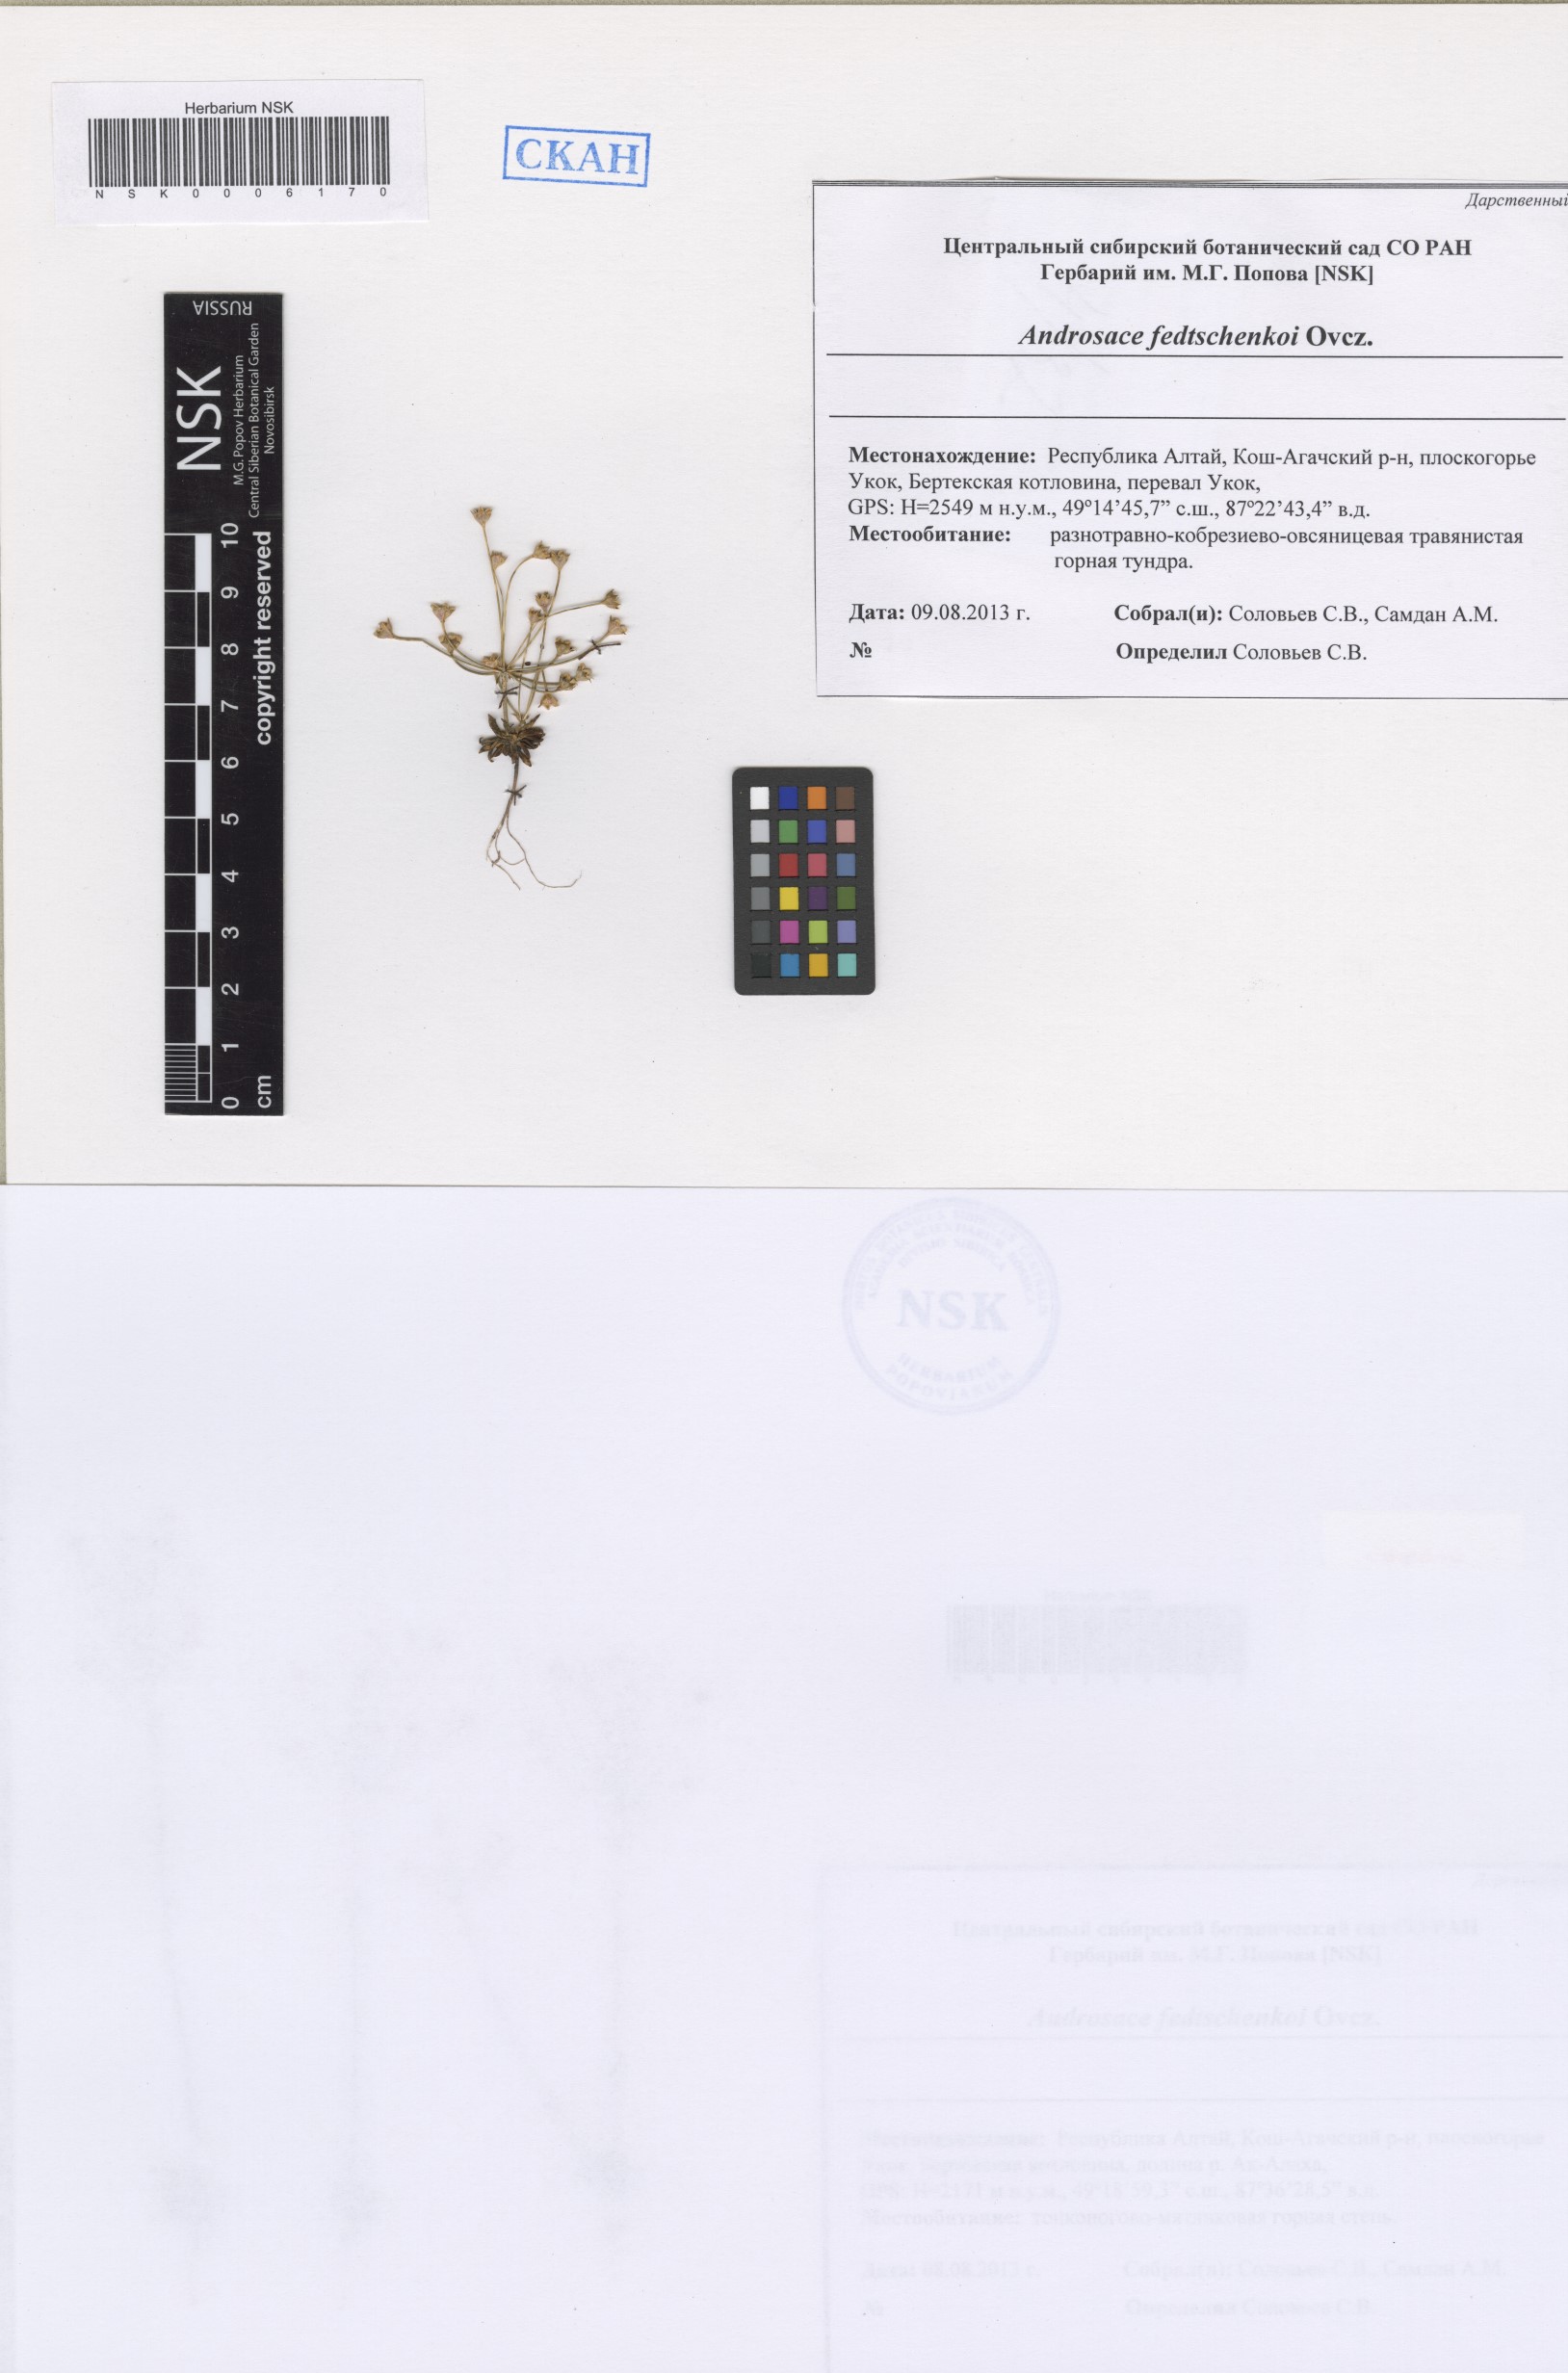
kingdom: Plantae
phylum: Tracheophyta
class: Magnoliopsida
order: Ericales
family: Primulaceae
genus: Androsace
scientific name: Androsace fedtschenkoi
